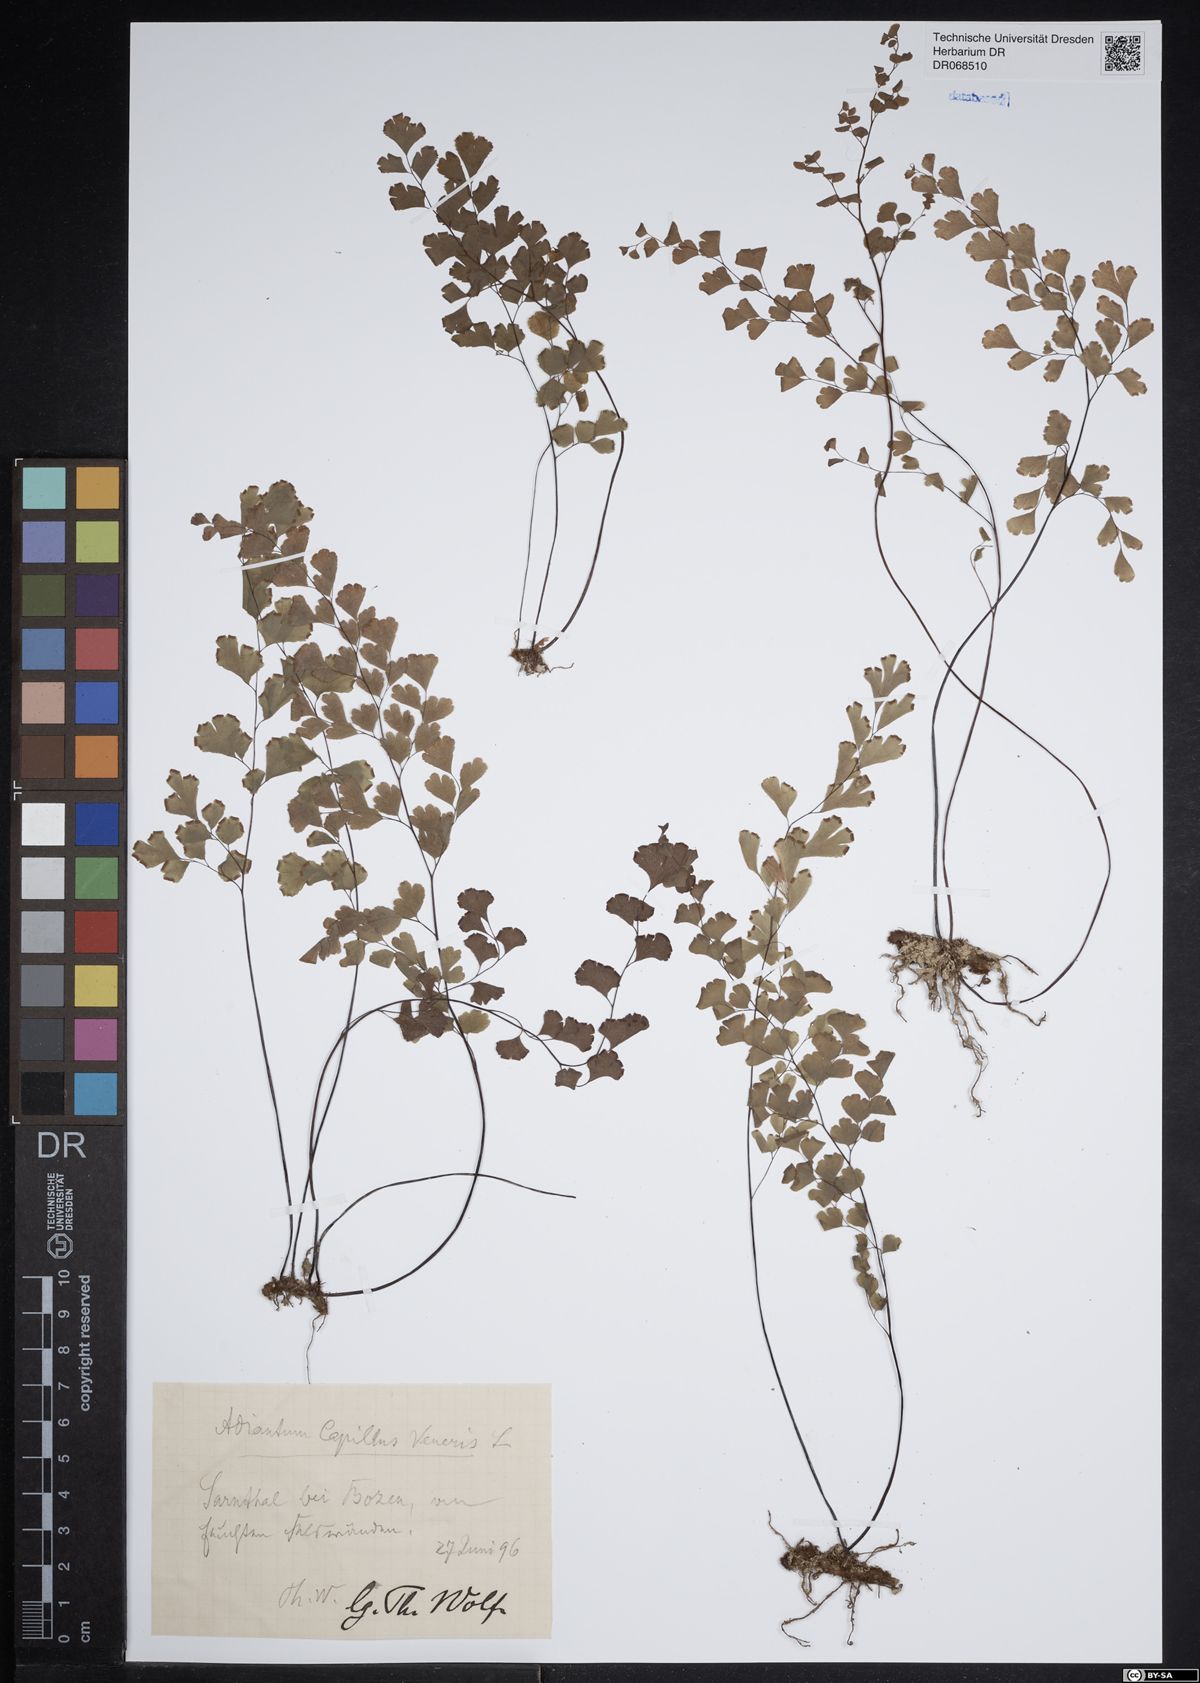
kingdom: Plantae
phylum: Tracheophyta
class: Polypodiopsida
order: Polypodiales
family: Pteridaceae
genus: Adiantum
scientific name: Adiantum capillus-veneris
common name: Maidenhair fern
